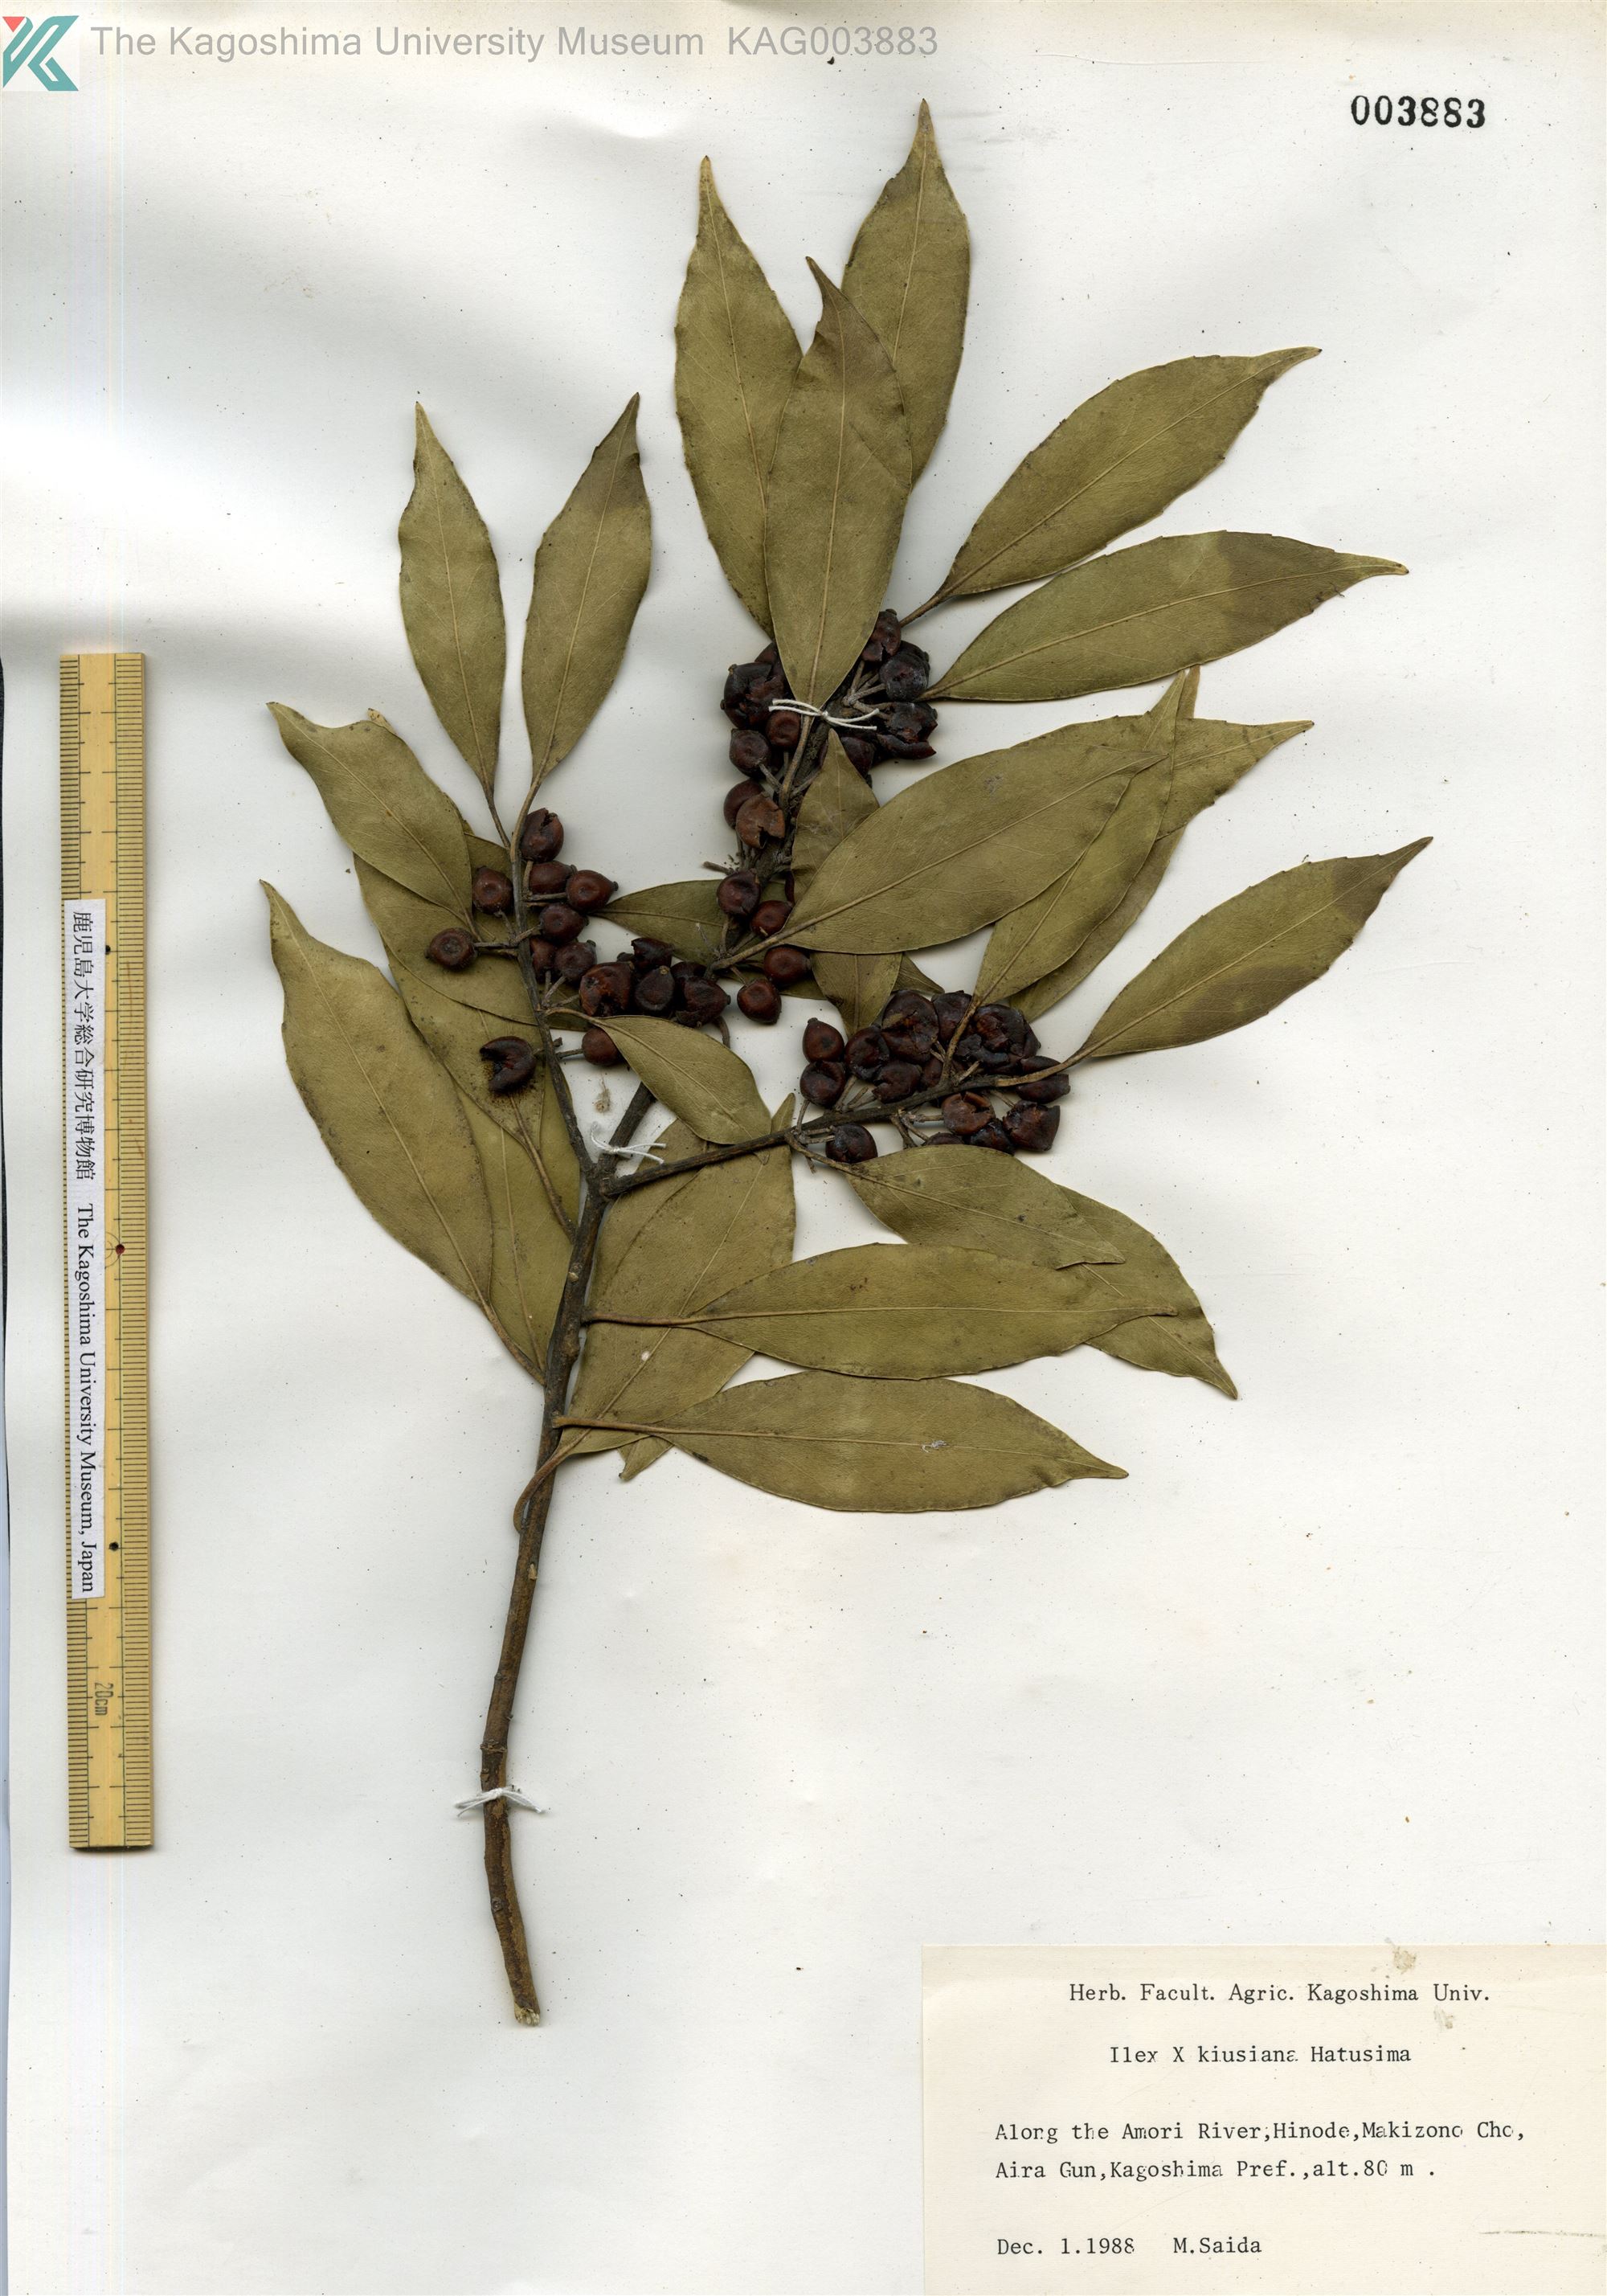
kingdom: Plantae
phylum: Tracheophyta
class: Magnoliopsida
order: Aquifoliales
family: Aquifoliaceae
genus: Ilex
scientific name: Ilex kiusiana
